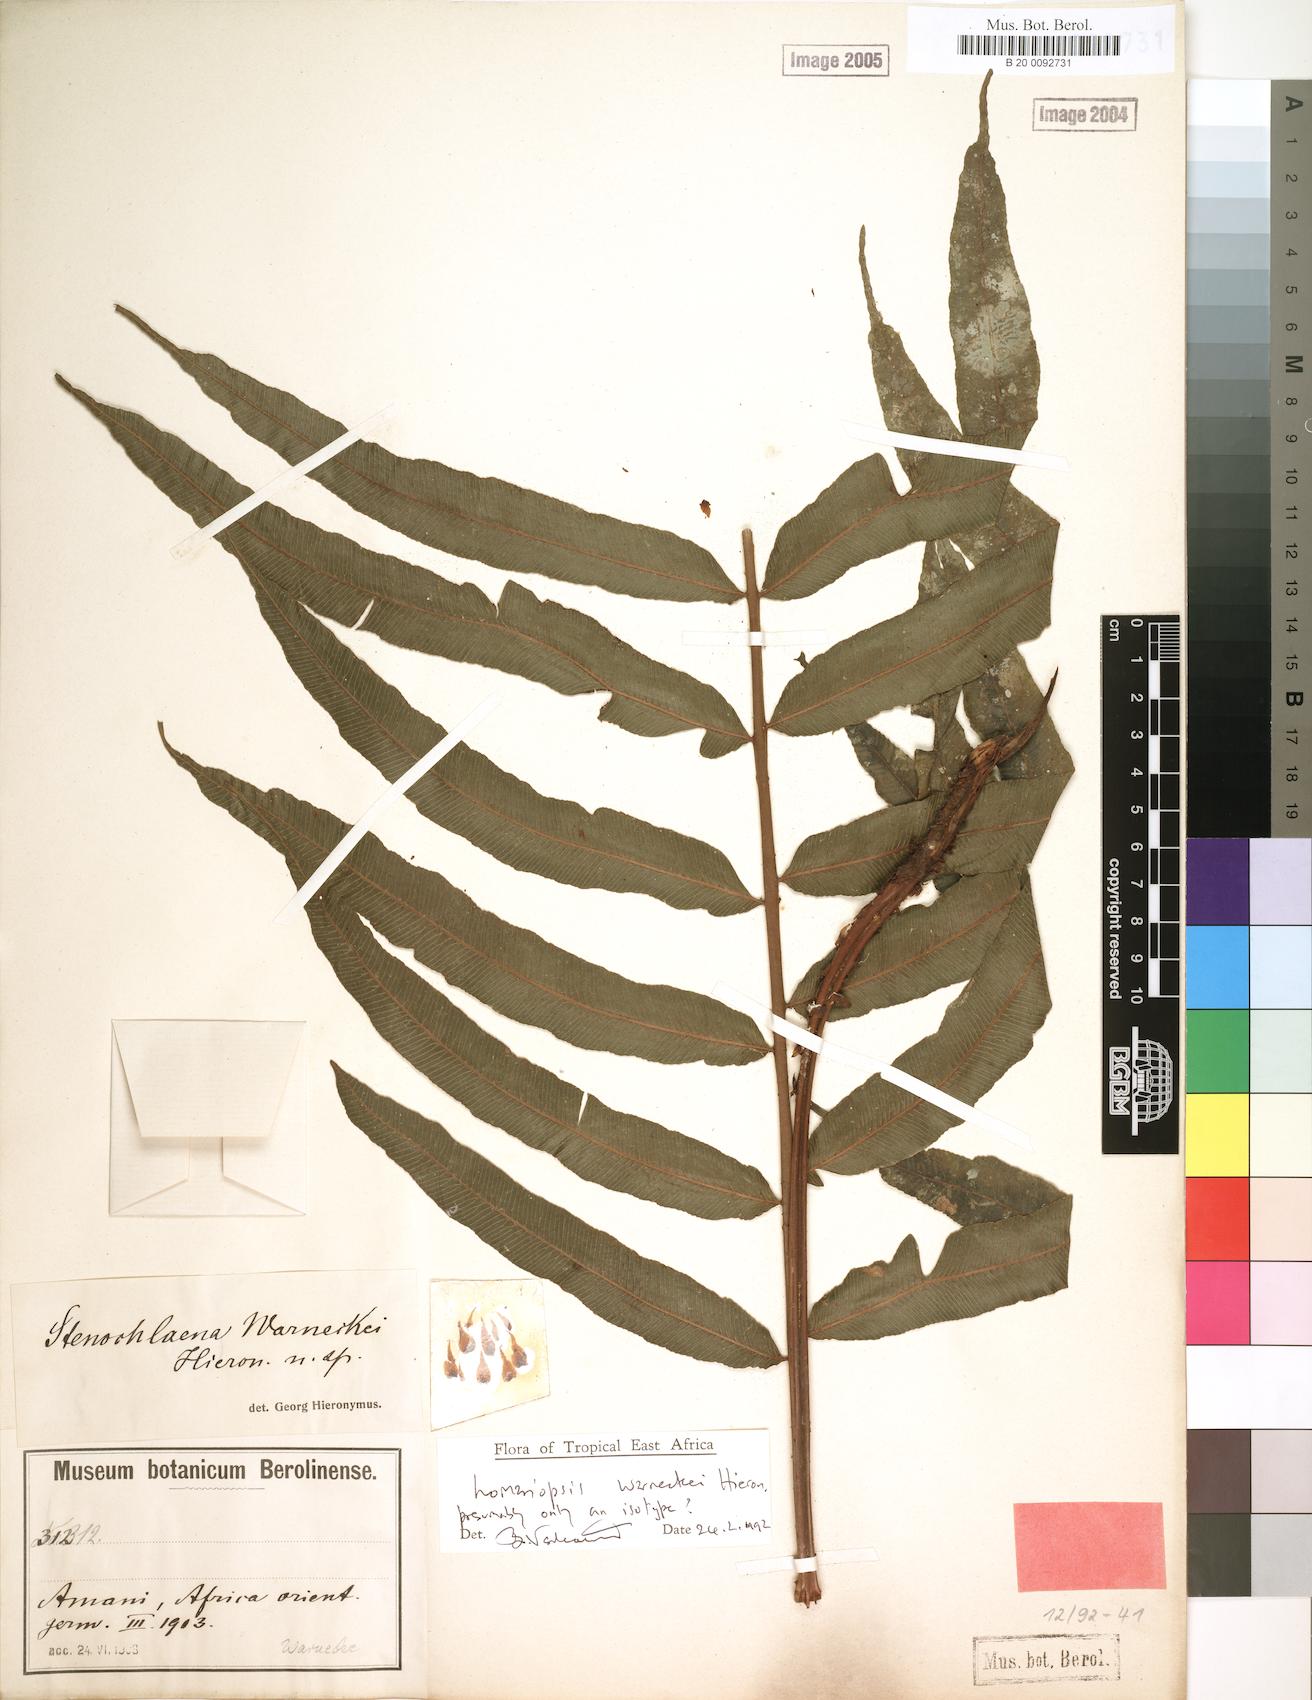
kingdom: Plantae
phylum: Tracheophyta
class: Polypodiopsida
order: Polypodiales
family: Lomariopsidaceae
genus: Lomariopsis
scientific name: Lomariopsis warneckei
